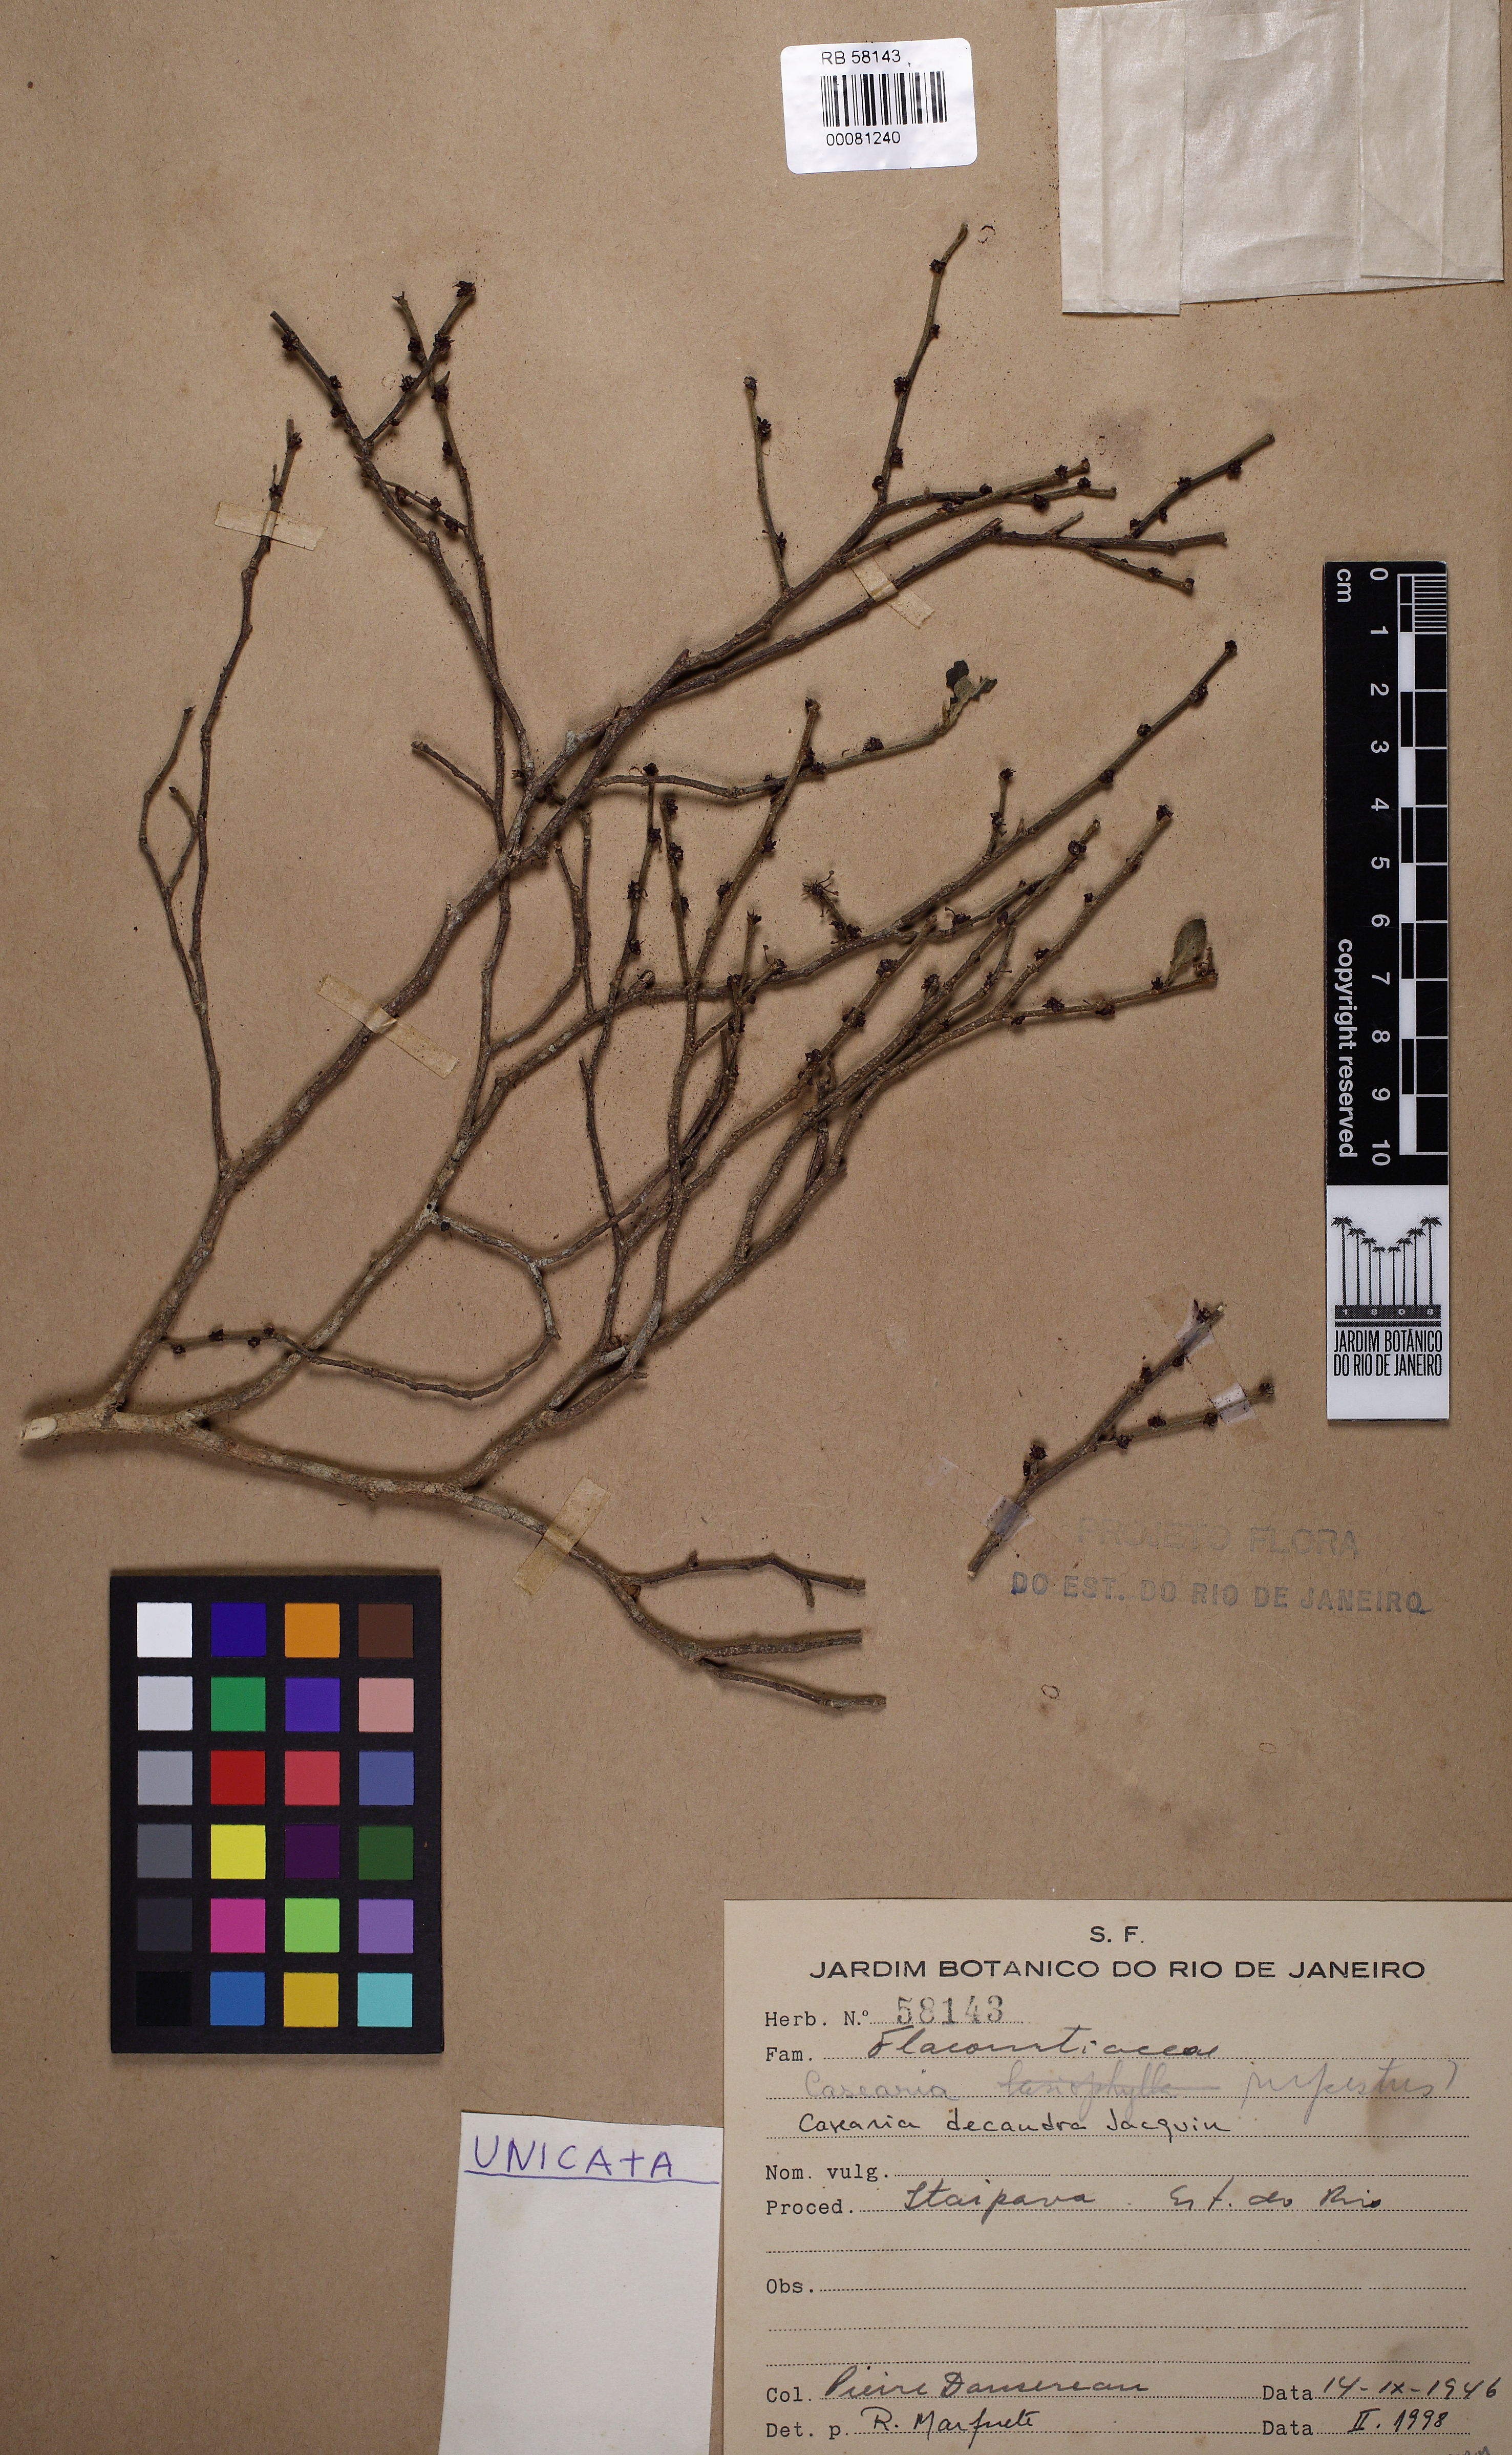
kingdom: Plantae
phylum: Tracheophyta
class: Magnoliopsida
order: Malpighiales
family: Salicaceae
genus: Casearia
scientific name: Casearia decandra
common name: Crack open
